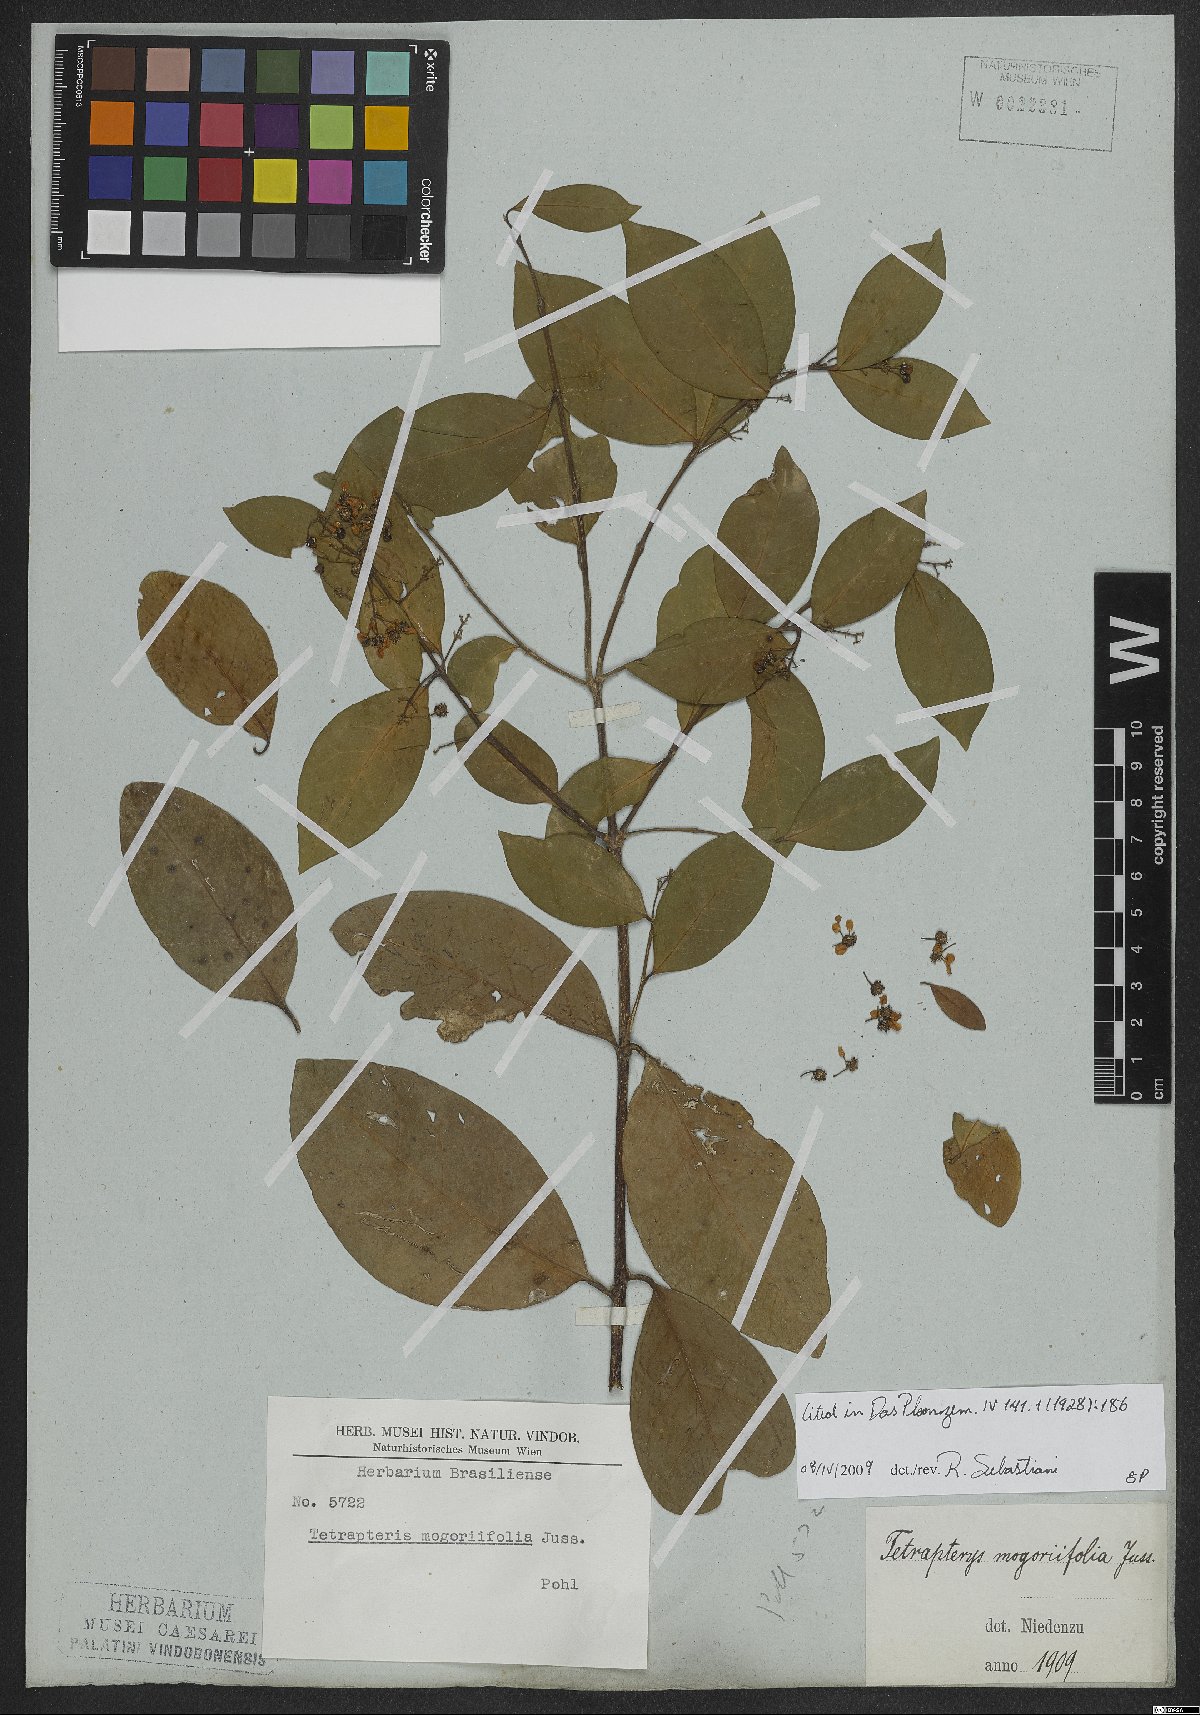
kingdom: Plantae
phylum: Tracheophyta
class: Magnoliopsida
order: Malpighiales
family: Malpighiaceae
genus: Niedenzuella
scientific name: Niedenzuella mogoriifolia
